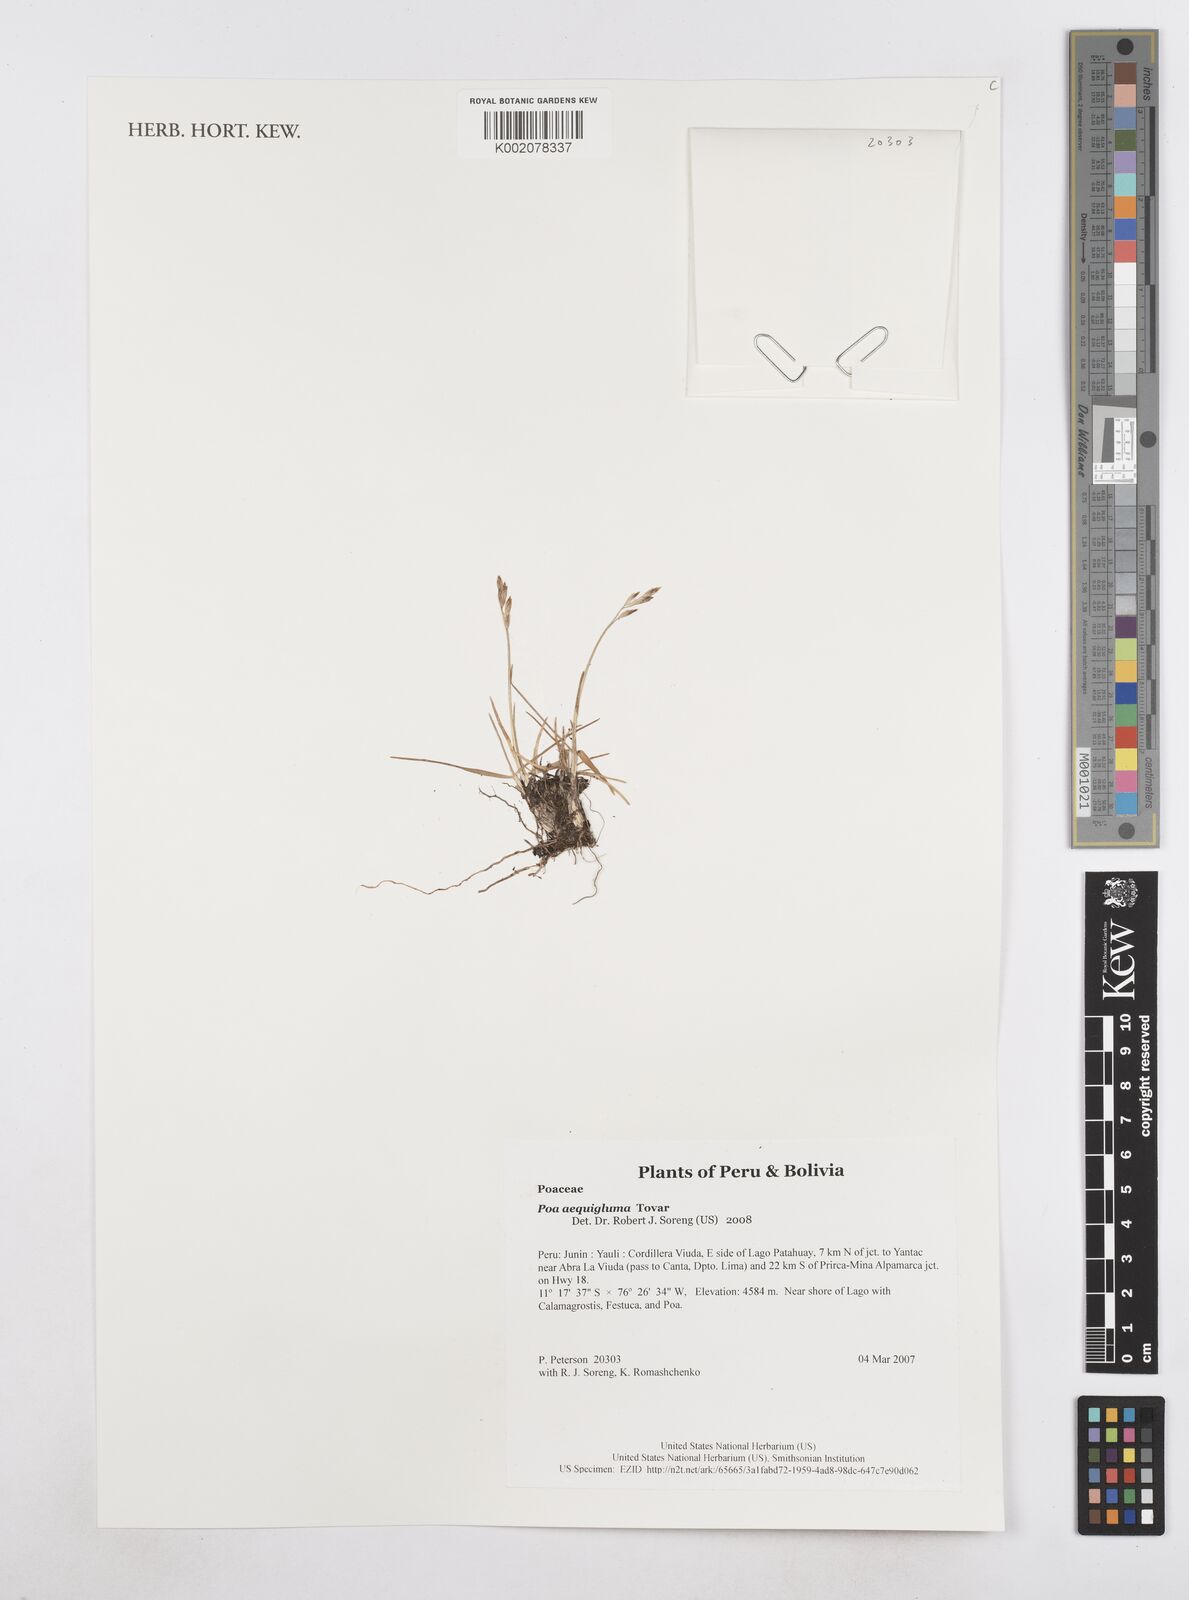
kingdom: Plantae
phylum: Tracheophyta
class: Liliopsida
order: Poales
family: Poaceae
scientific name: Poaceae
